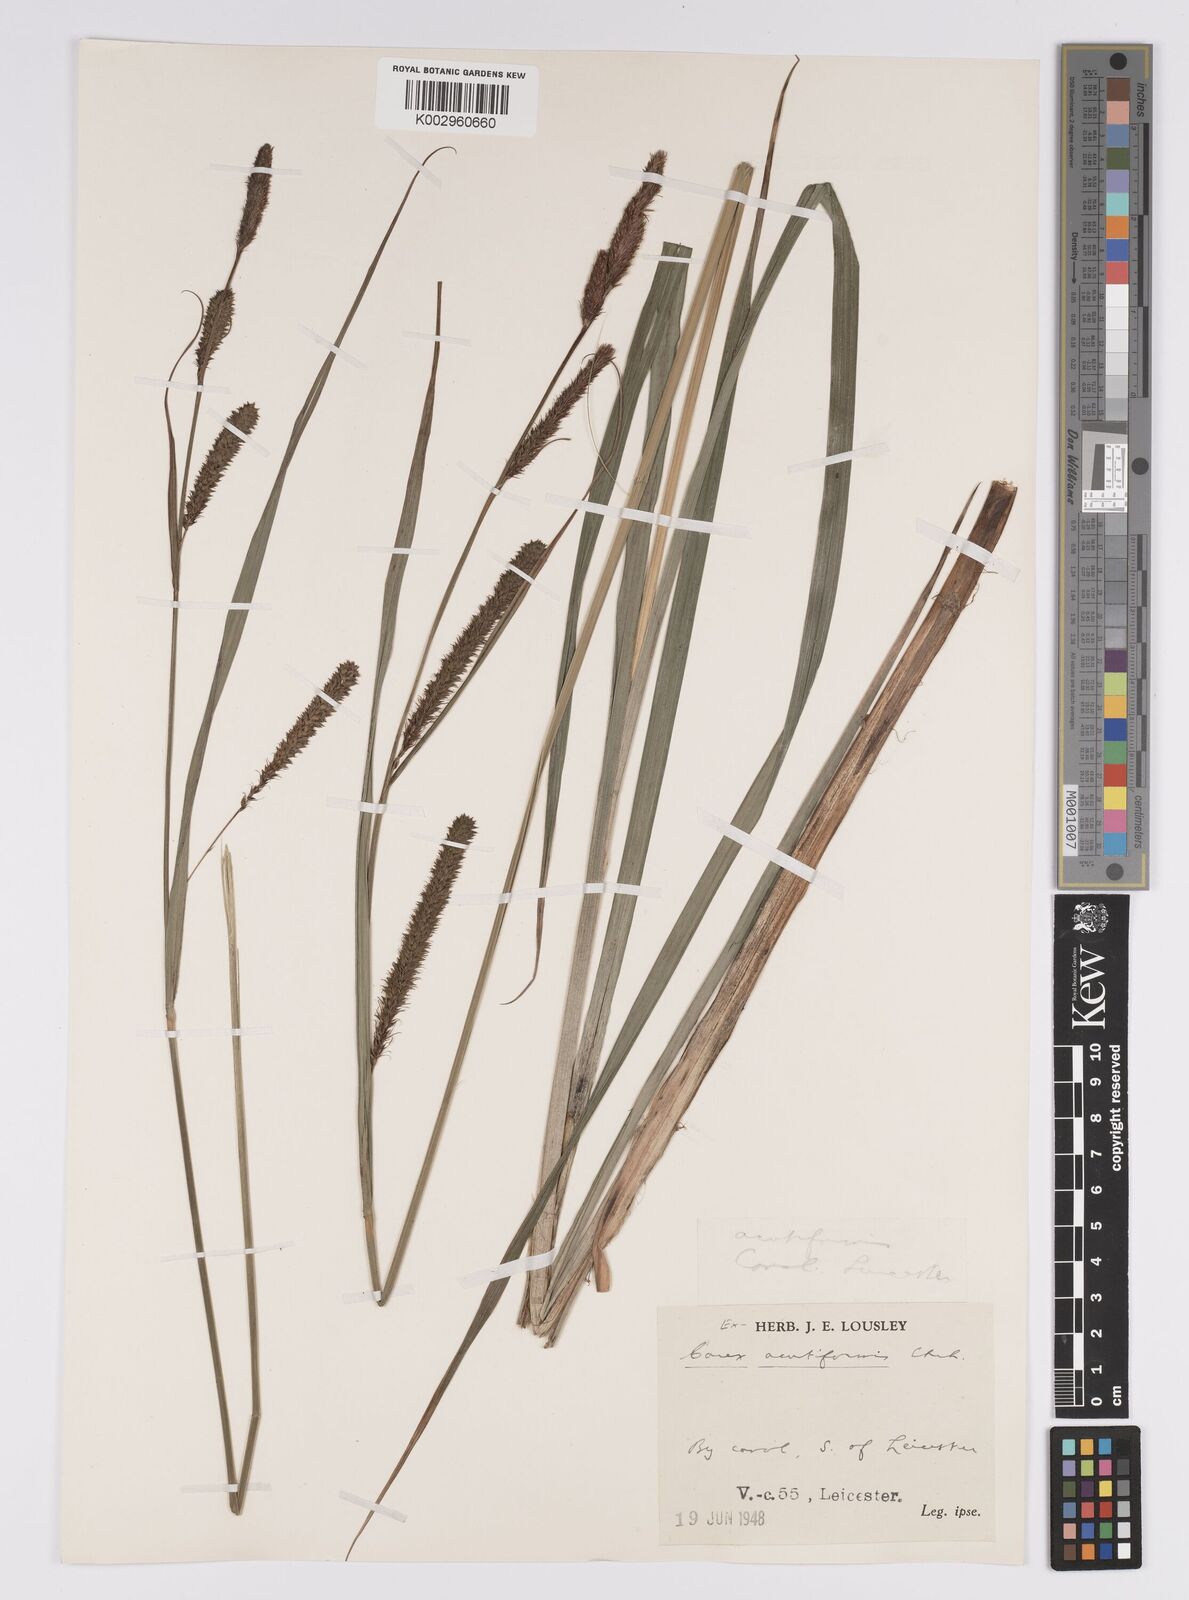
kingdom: Plantae
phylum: Tracheophyta
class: Liliopsida
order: Poales
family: Cyperaceae
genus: Carex
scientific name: Carex acutiformis
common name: Lesser pond-sedge
